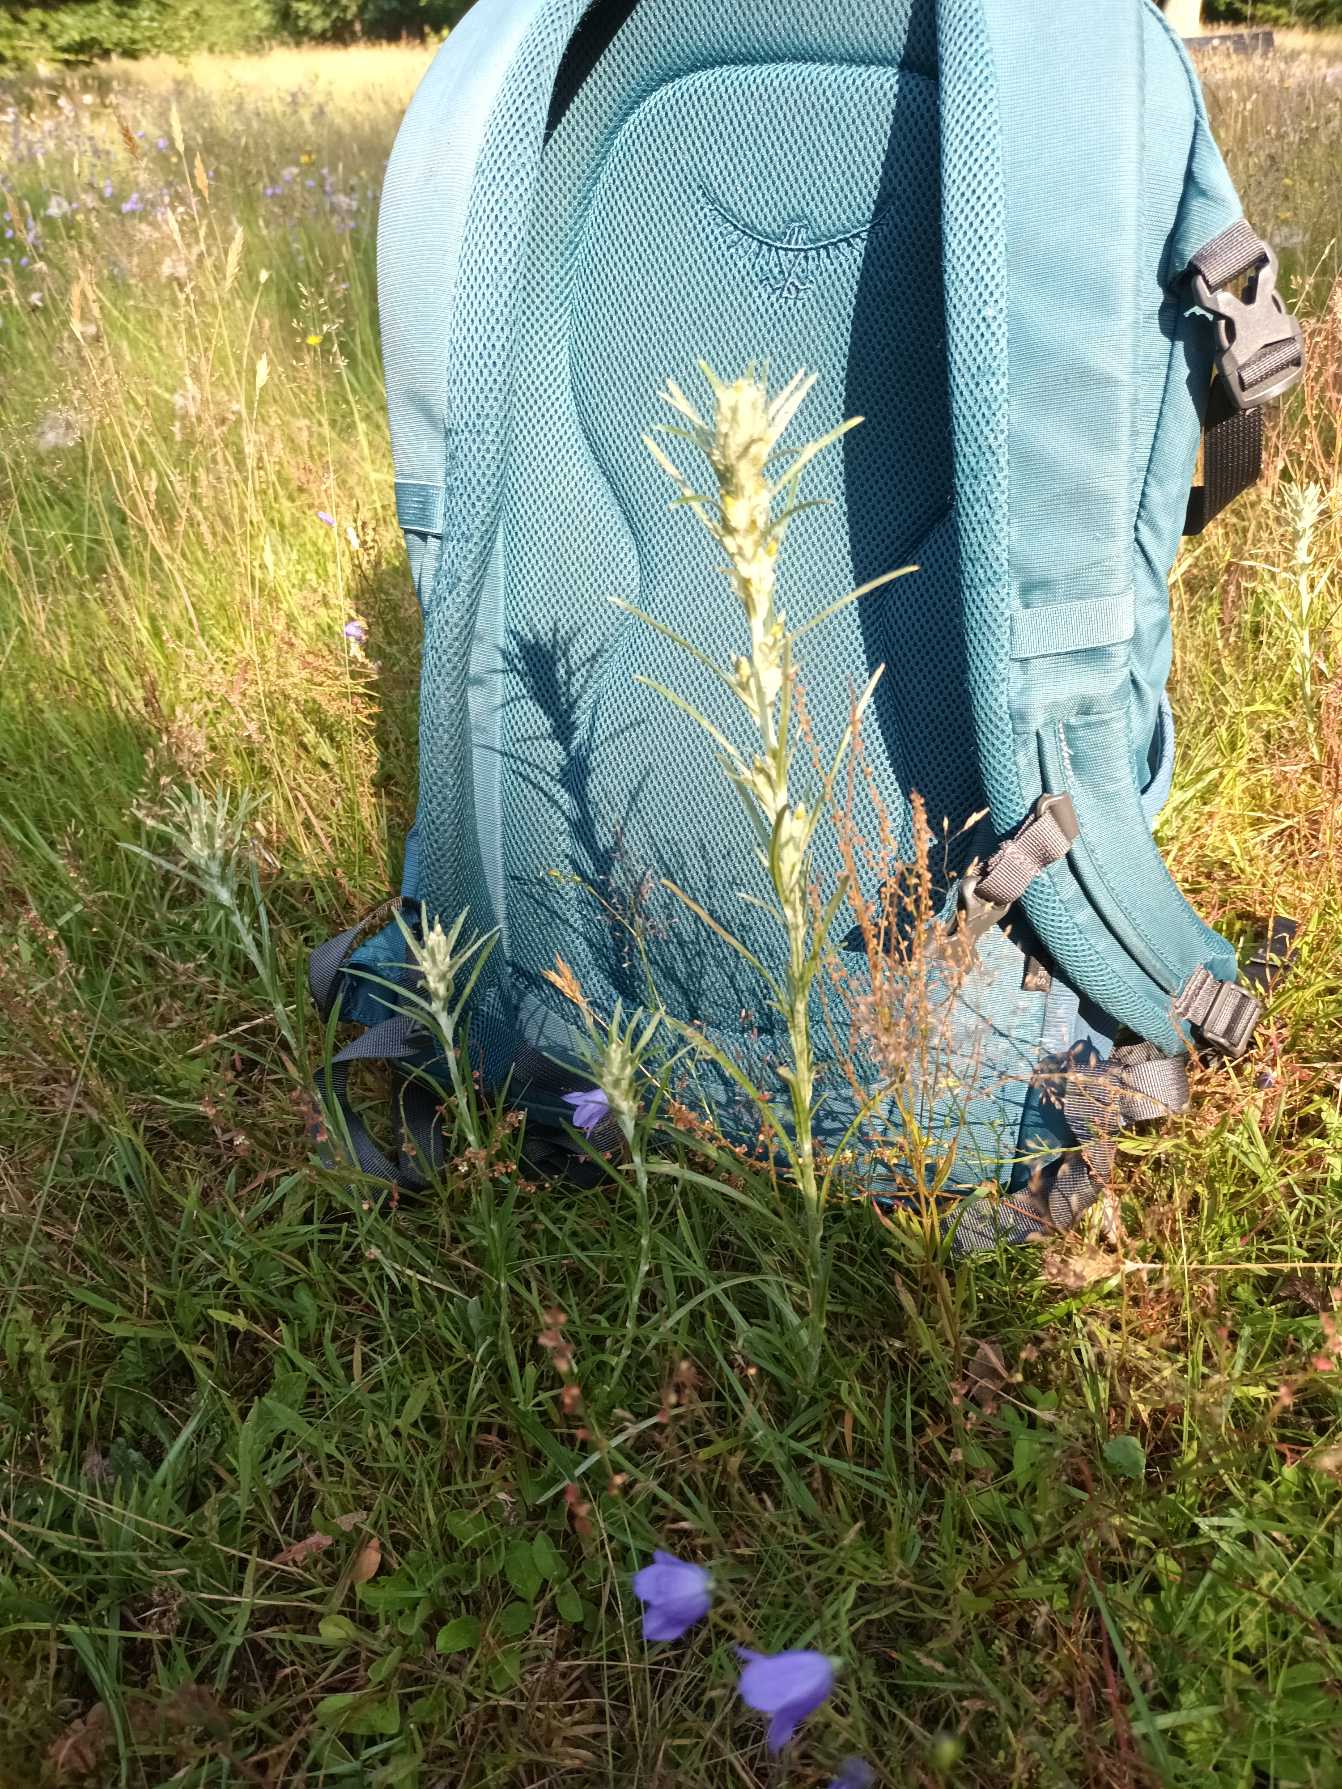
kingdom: Plantae
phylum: Tracheophyta
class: Magnoliopsida
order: Asterales
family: Asteraceae
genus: Omalotheca
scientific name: Omalotheca sylvatica
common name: Rank evighedsblomst
